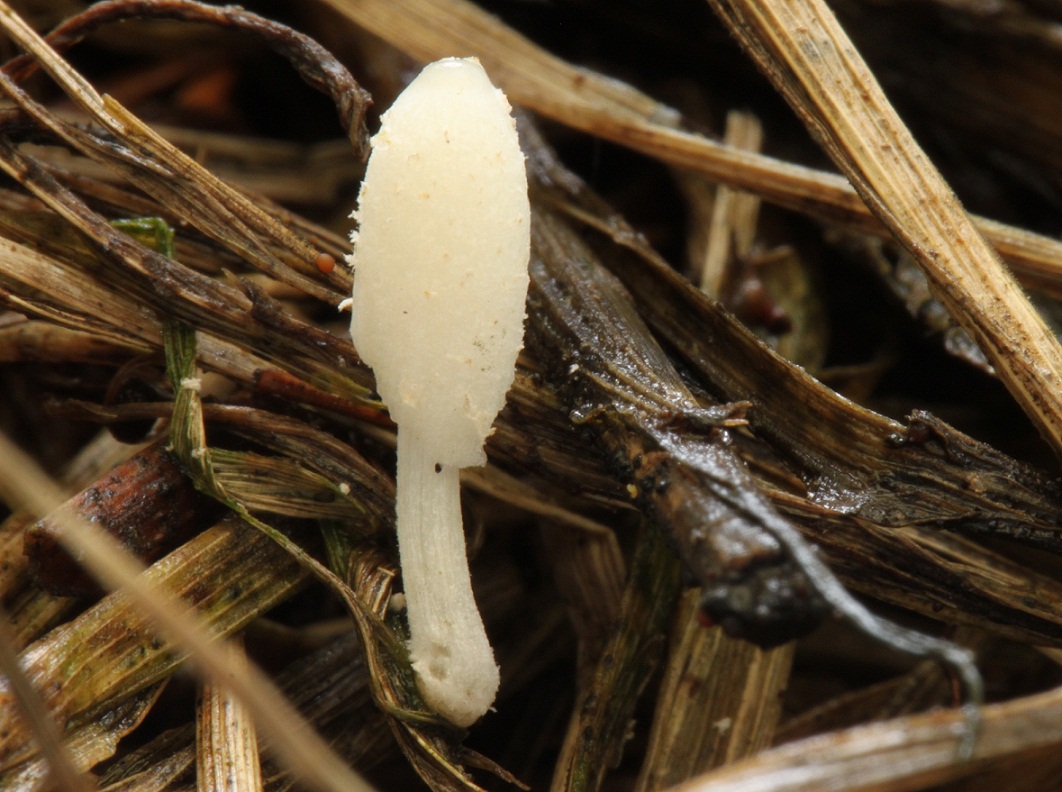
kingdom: Fungi
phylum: Basidiomycota
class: Agaricomycetes
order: Agaricales
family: Psathyrellaceae
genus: Coprinopsis
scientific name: Coprinopsis phaeospora
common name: fælled-blækhat
